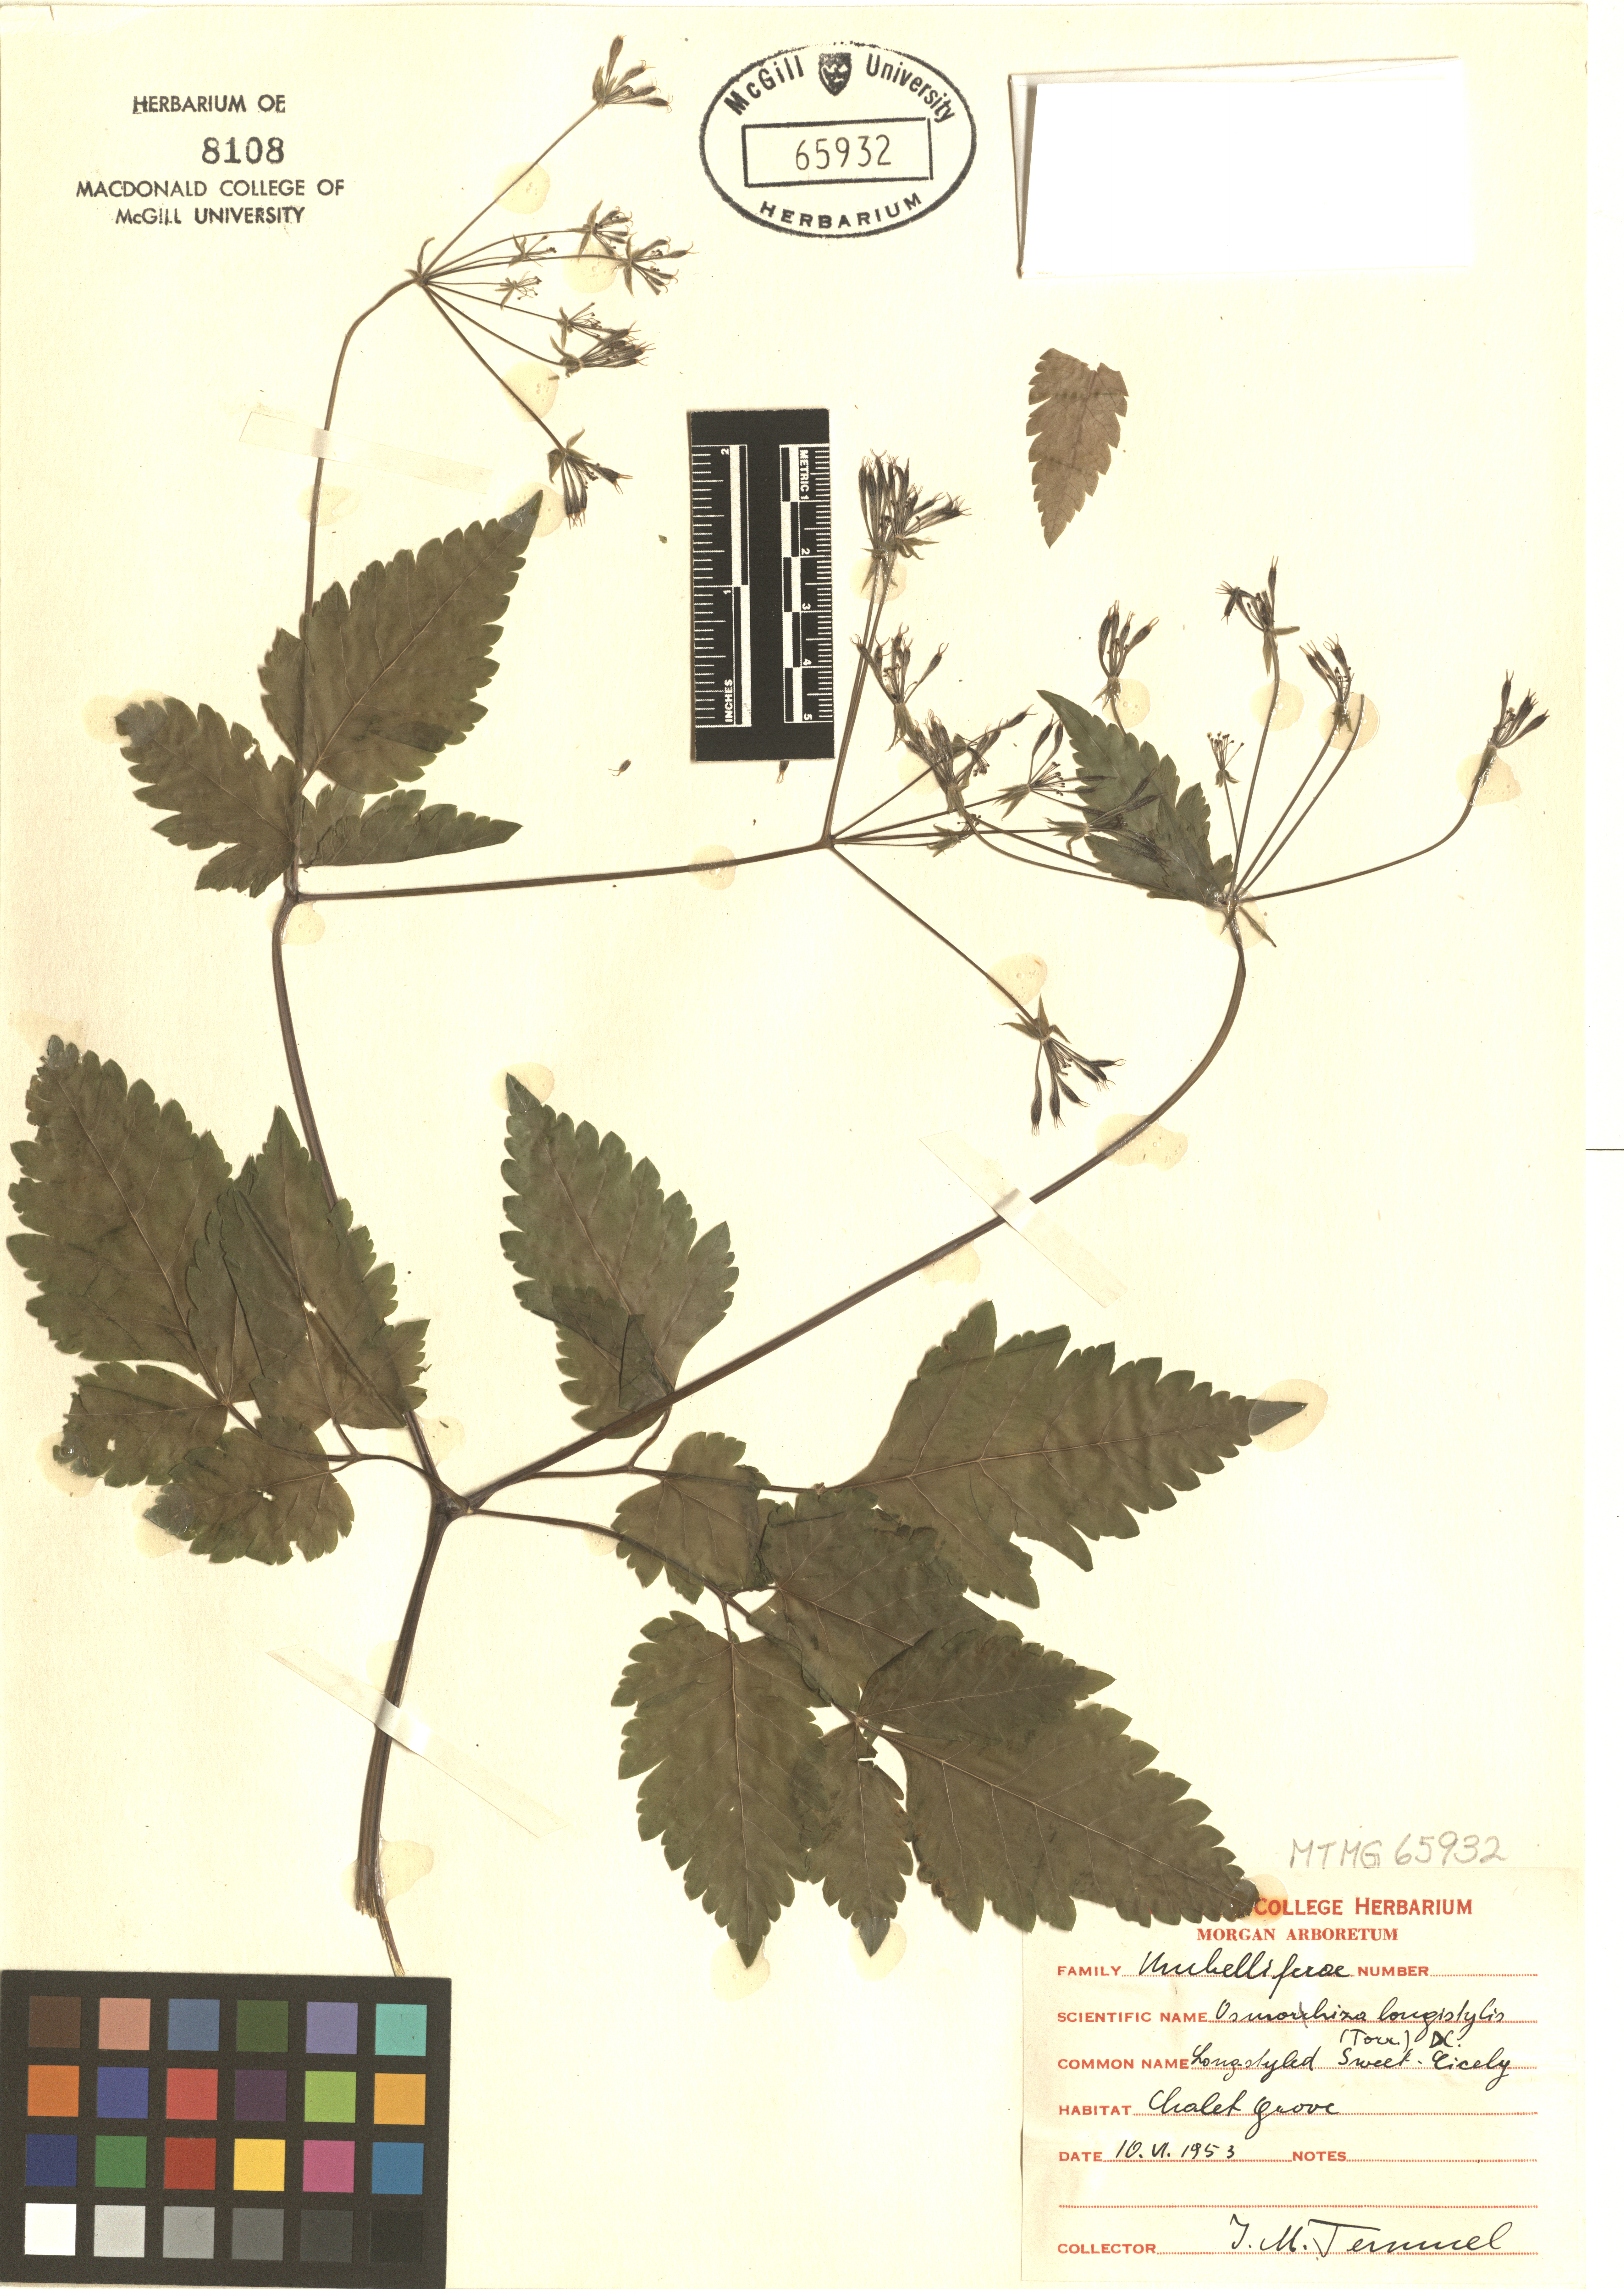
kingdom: Plantae
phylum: Tracheophyta
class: Magnoliopsida
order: Apiales
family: Apiaceae
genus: Osmorhiza
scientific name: Osmorhiza longistylis
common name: Smooth sweet cicely
